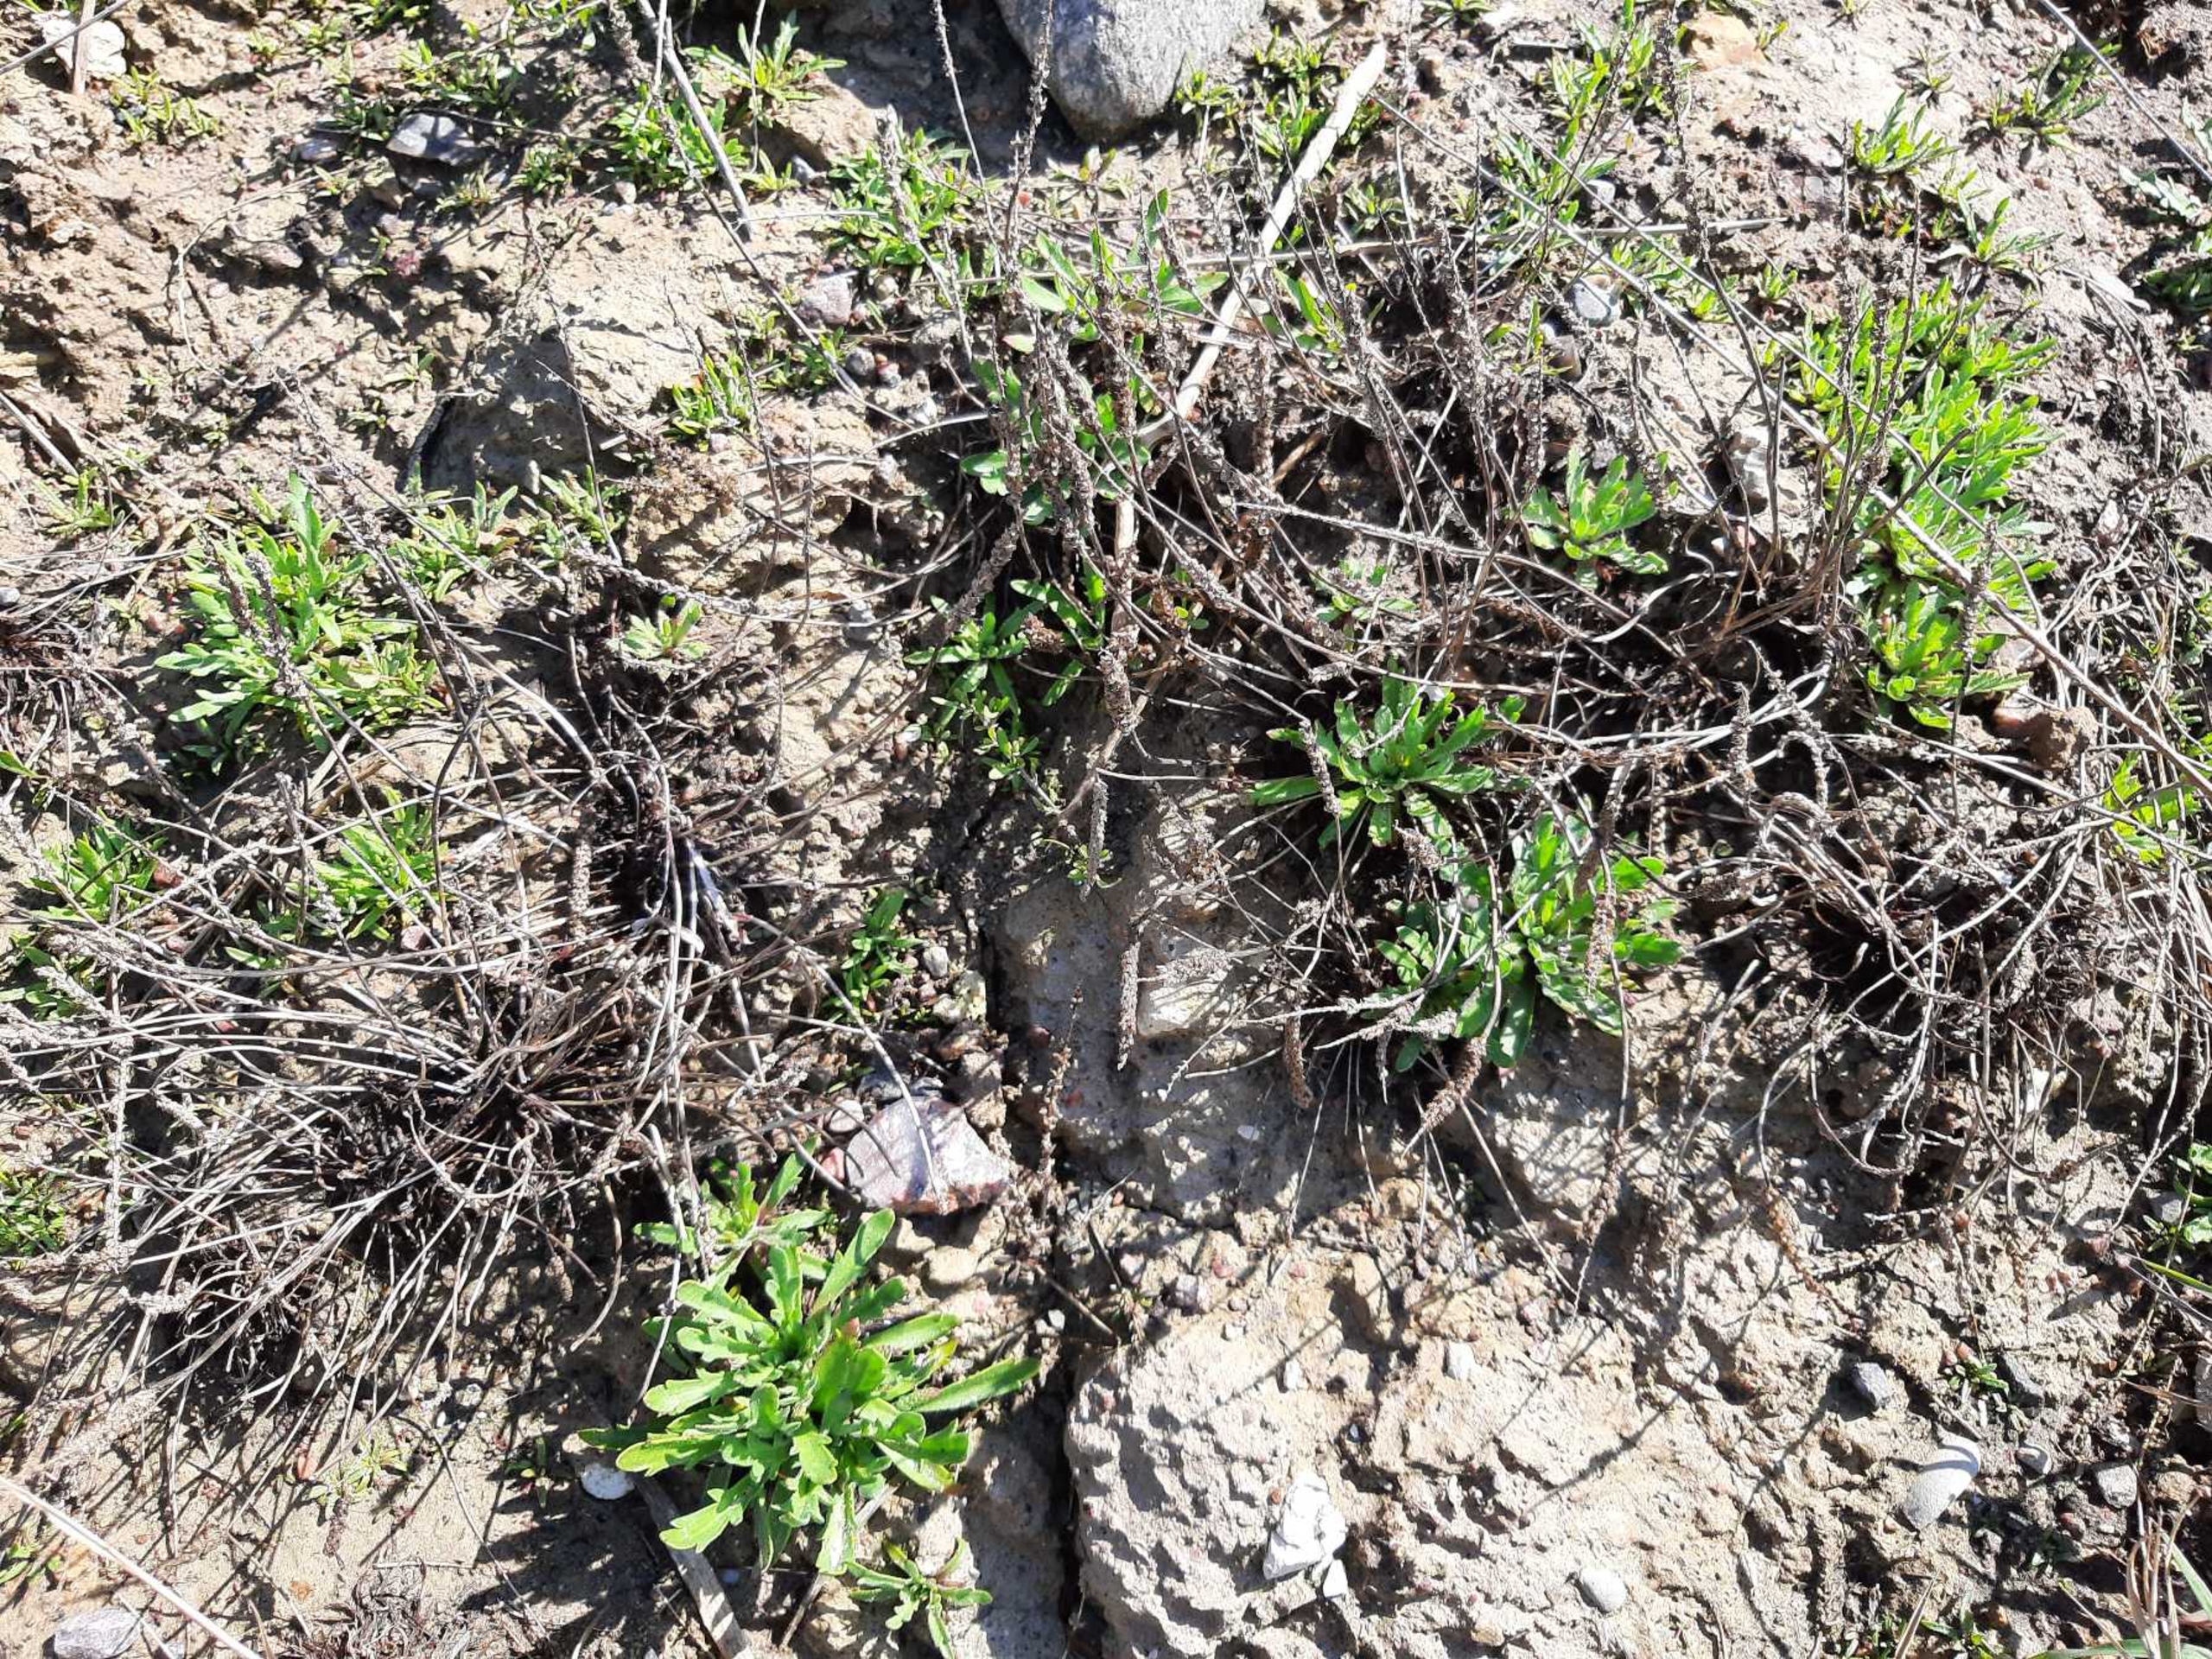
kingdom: Plantae
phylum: Tracheophyta
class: Magnoliopsida
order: Lamiales
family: Plantaginaceae
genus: Plantago
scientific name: Plantago coronopus
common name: Fliget vejbred
